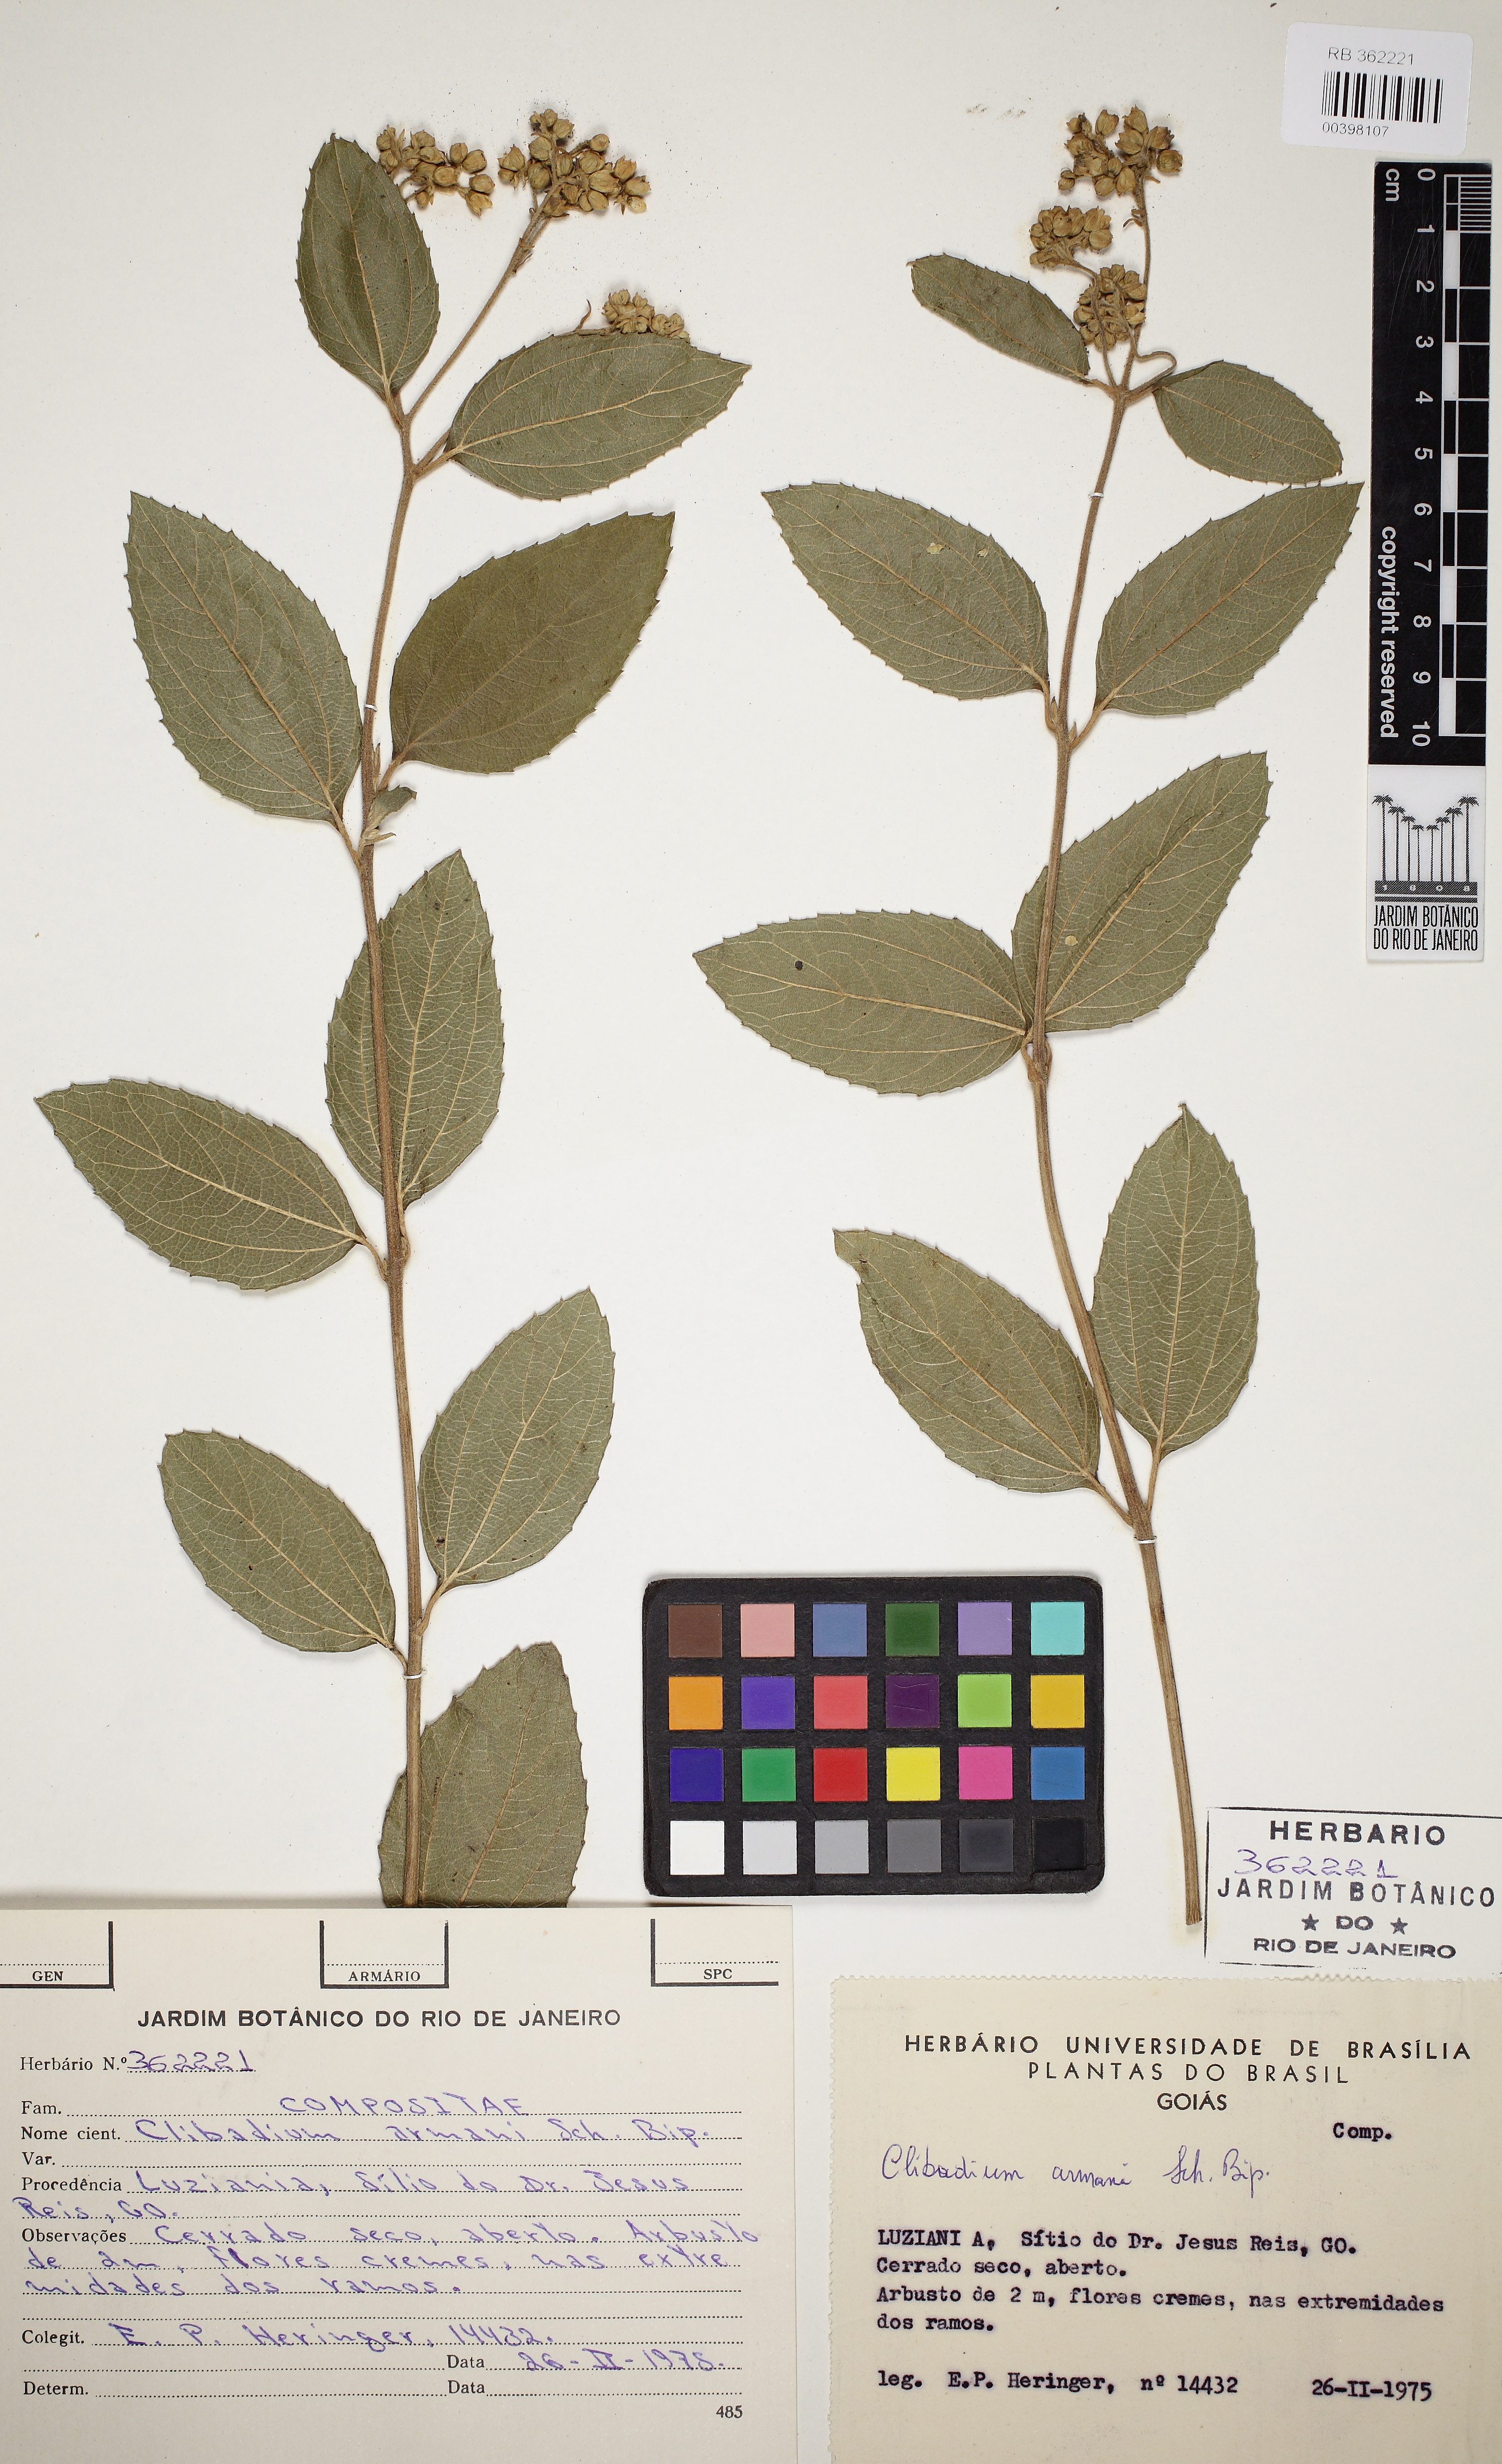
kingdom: Plantae
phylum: Tracheophyta
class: Magnoliopsida
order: Asterales
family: Asteraceae
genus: Clibadium
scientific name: Clibadium armanii
